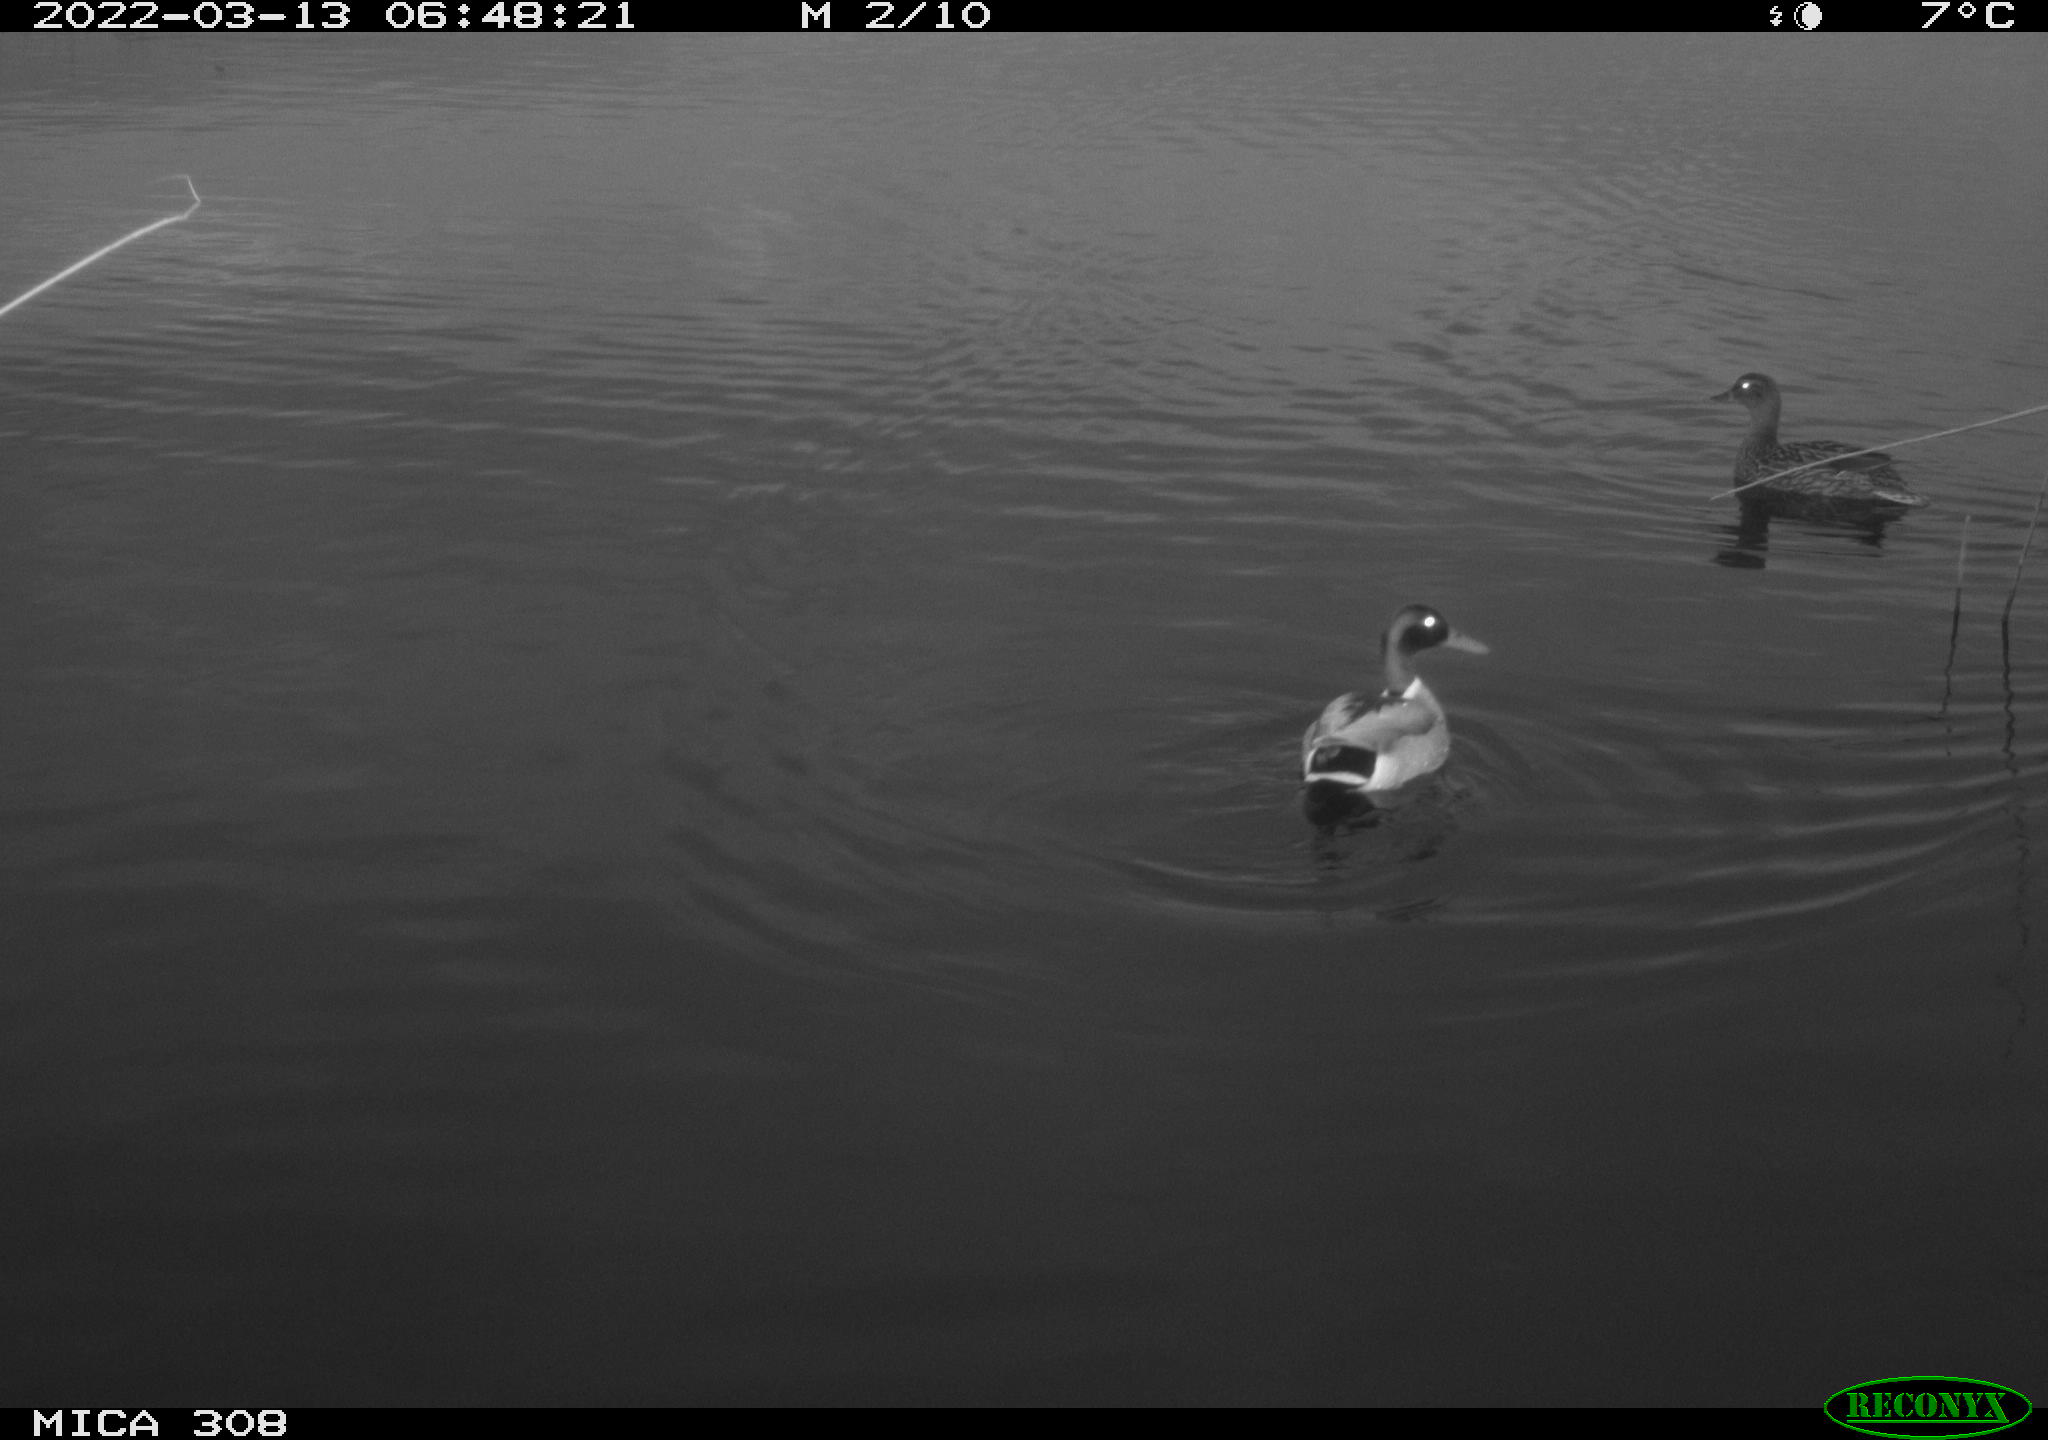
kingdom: Animalia
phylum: Chordata
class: Aves
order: Anseriformes
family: Anatidae
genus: Anas
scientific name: Anas platyrhynchos
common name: Mallard
